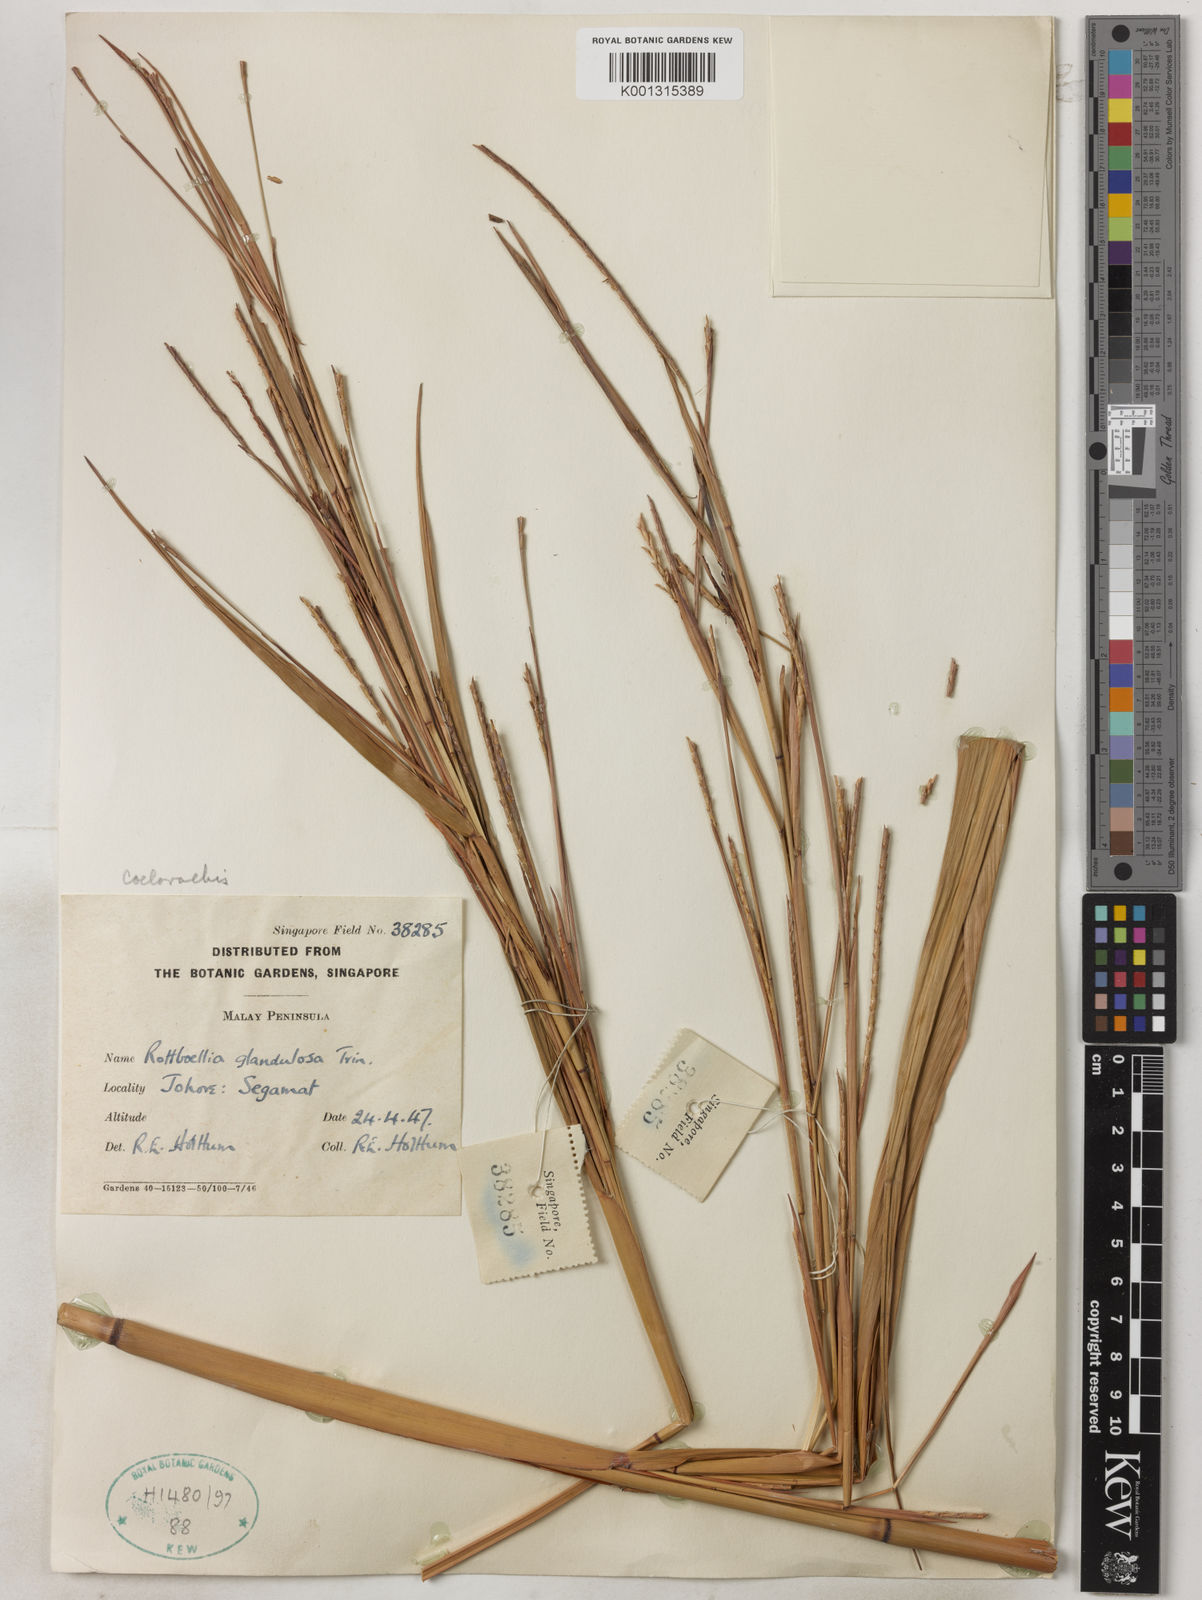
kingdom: Plantae
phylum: Tracheophyta
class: Liliopsida
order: Poales
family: Poaceae
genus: Rottboellia
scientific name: Rottboellia glandulosa
